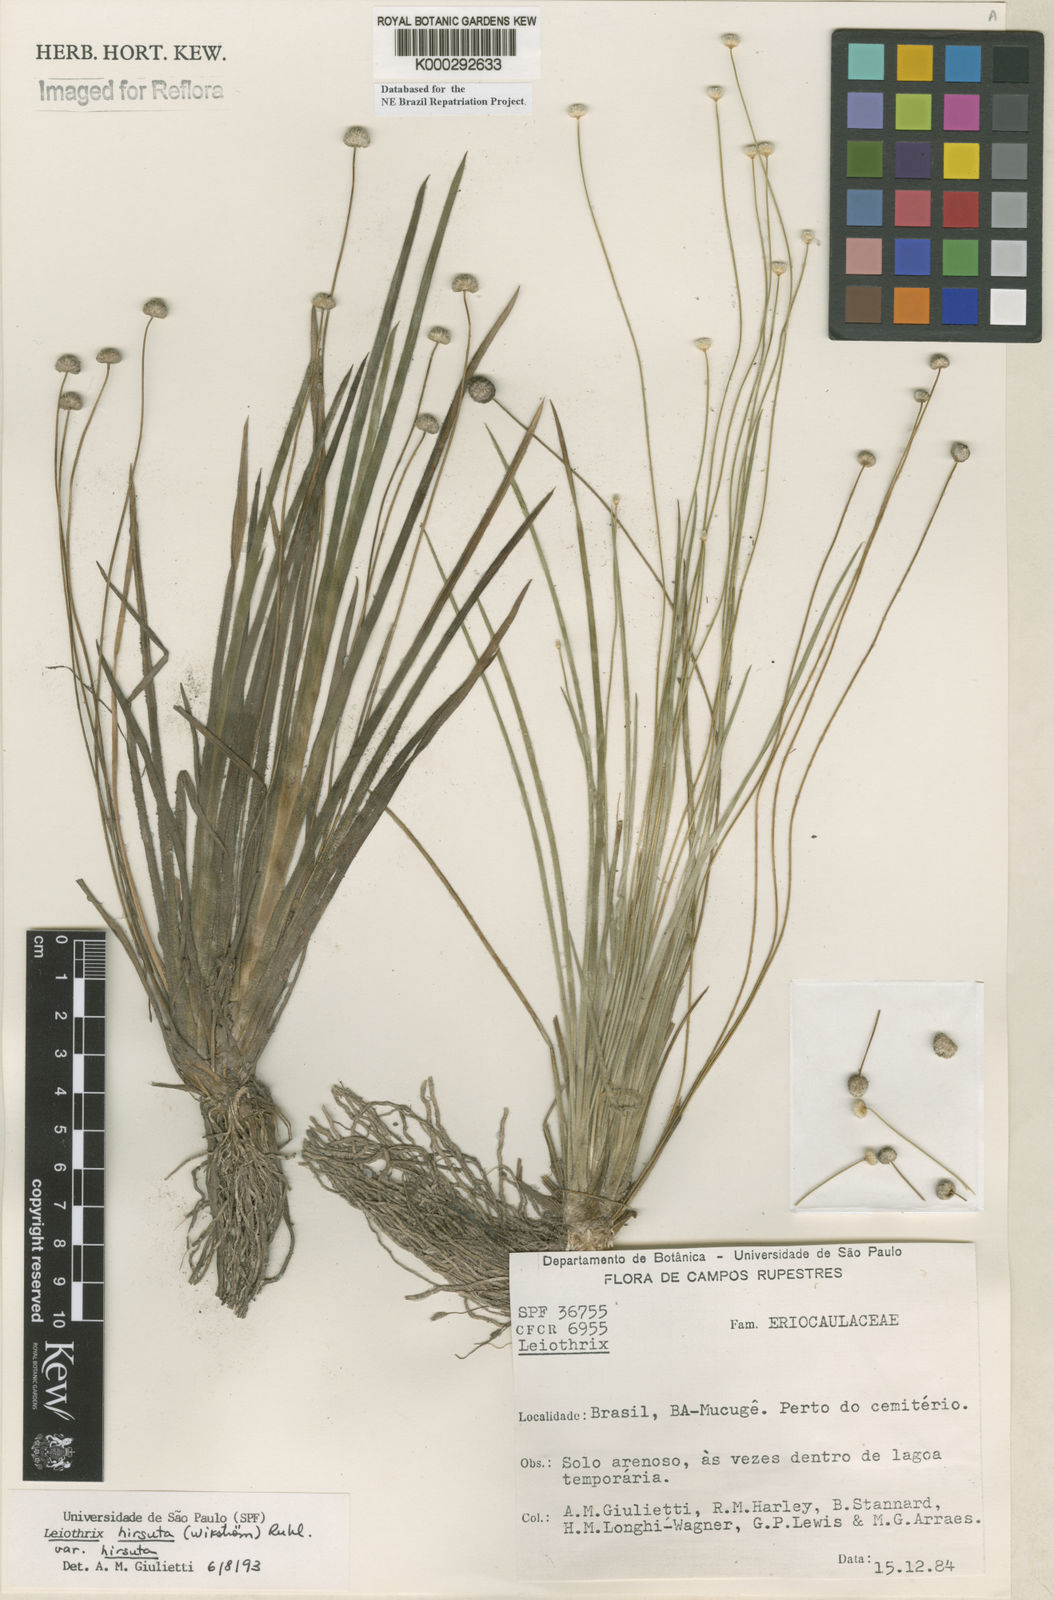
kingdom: Plantae
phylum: Tracheophyta
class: Liliopsida
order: Poales
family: Eriocaulaceae
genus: Leiothrix
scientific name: Leiothrix hirsuta
